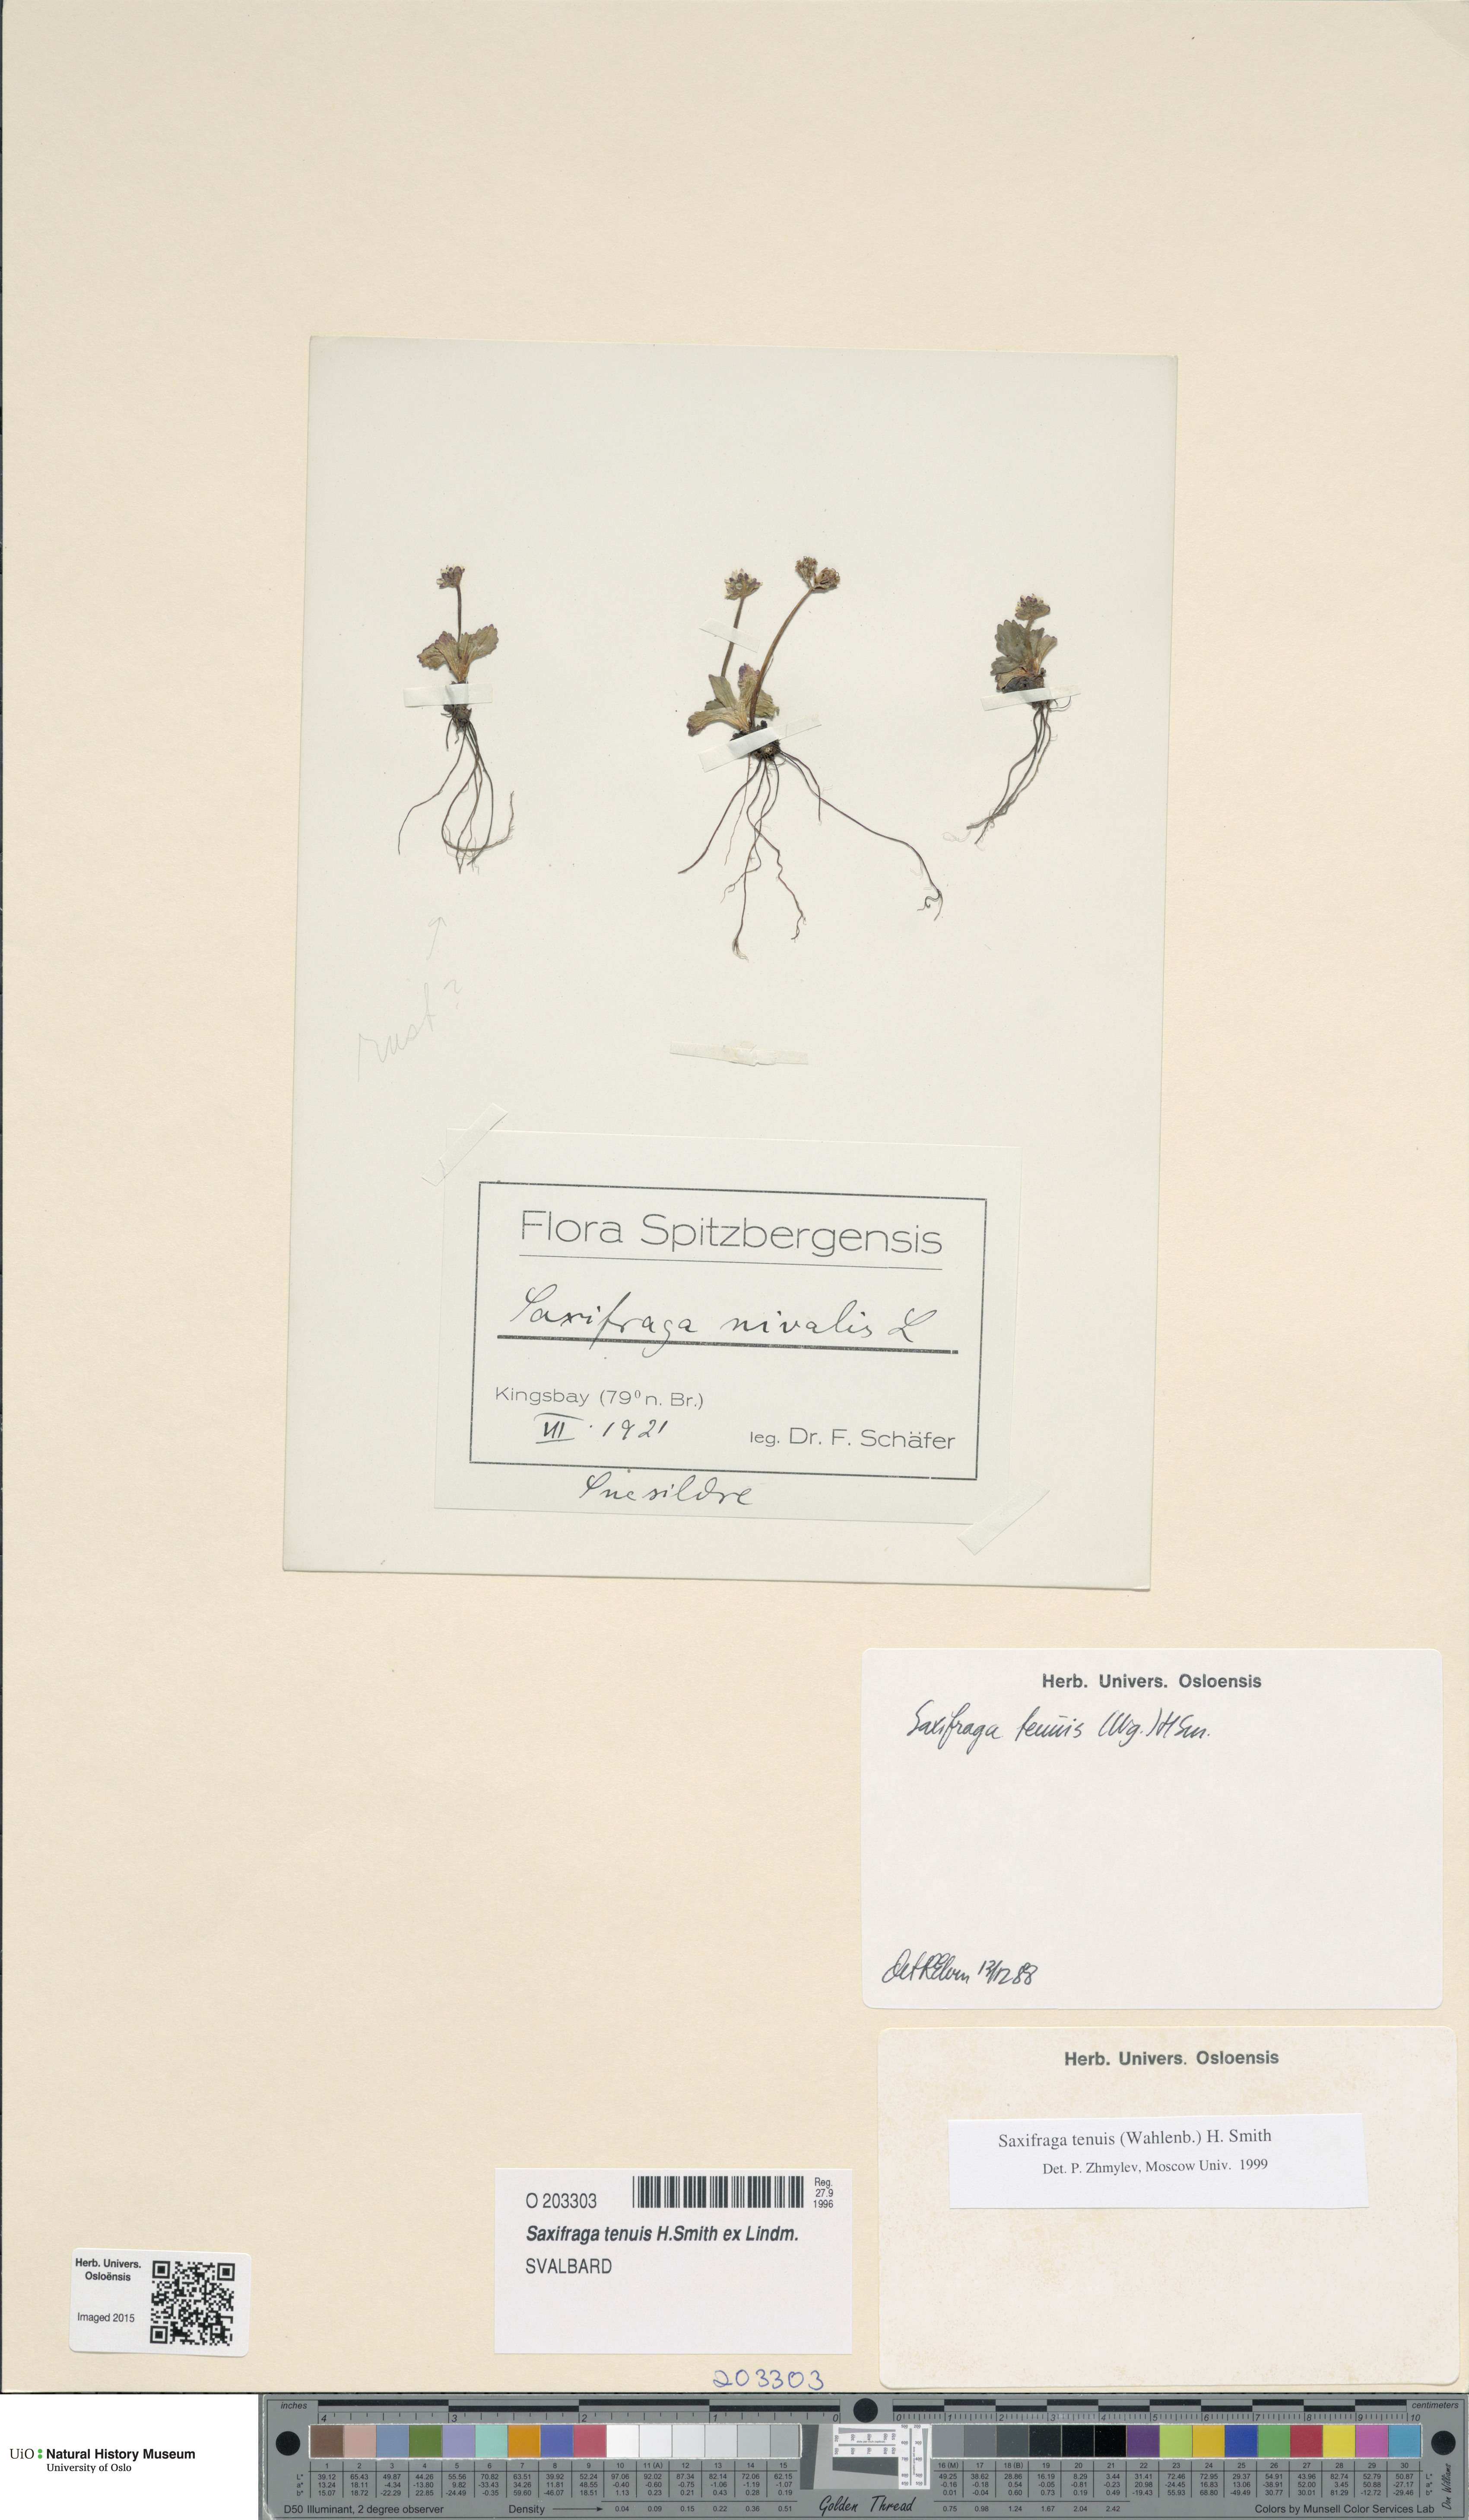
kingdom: Plantae
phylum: Tracheophyta
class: Magnoliopsida
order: Saxifragales
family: Saxifragaceae
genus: Micranthes
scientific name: Micranthes tenuis
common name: Ottertail pass saxifrage
